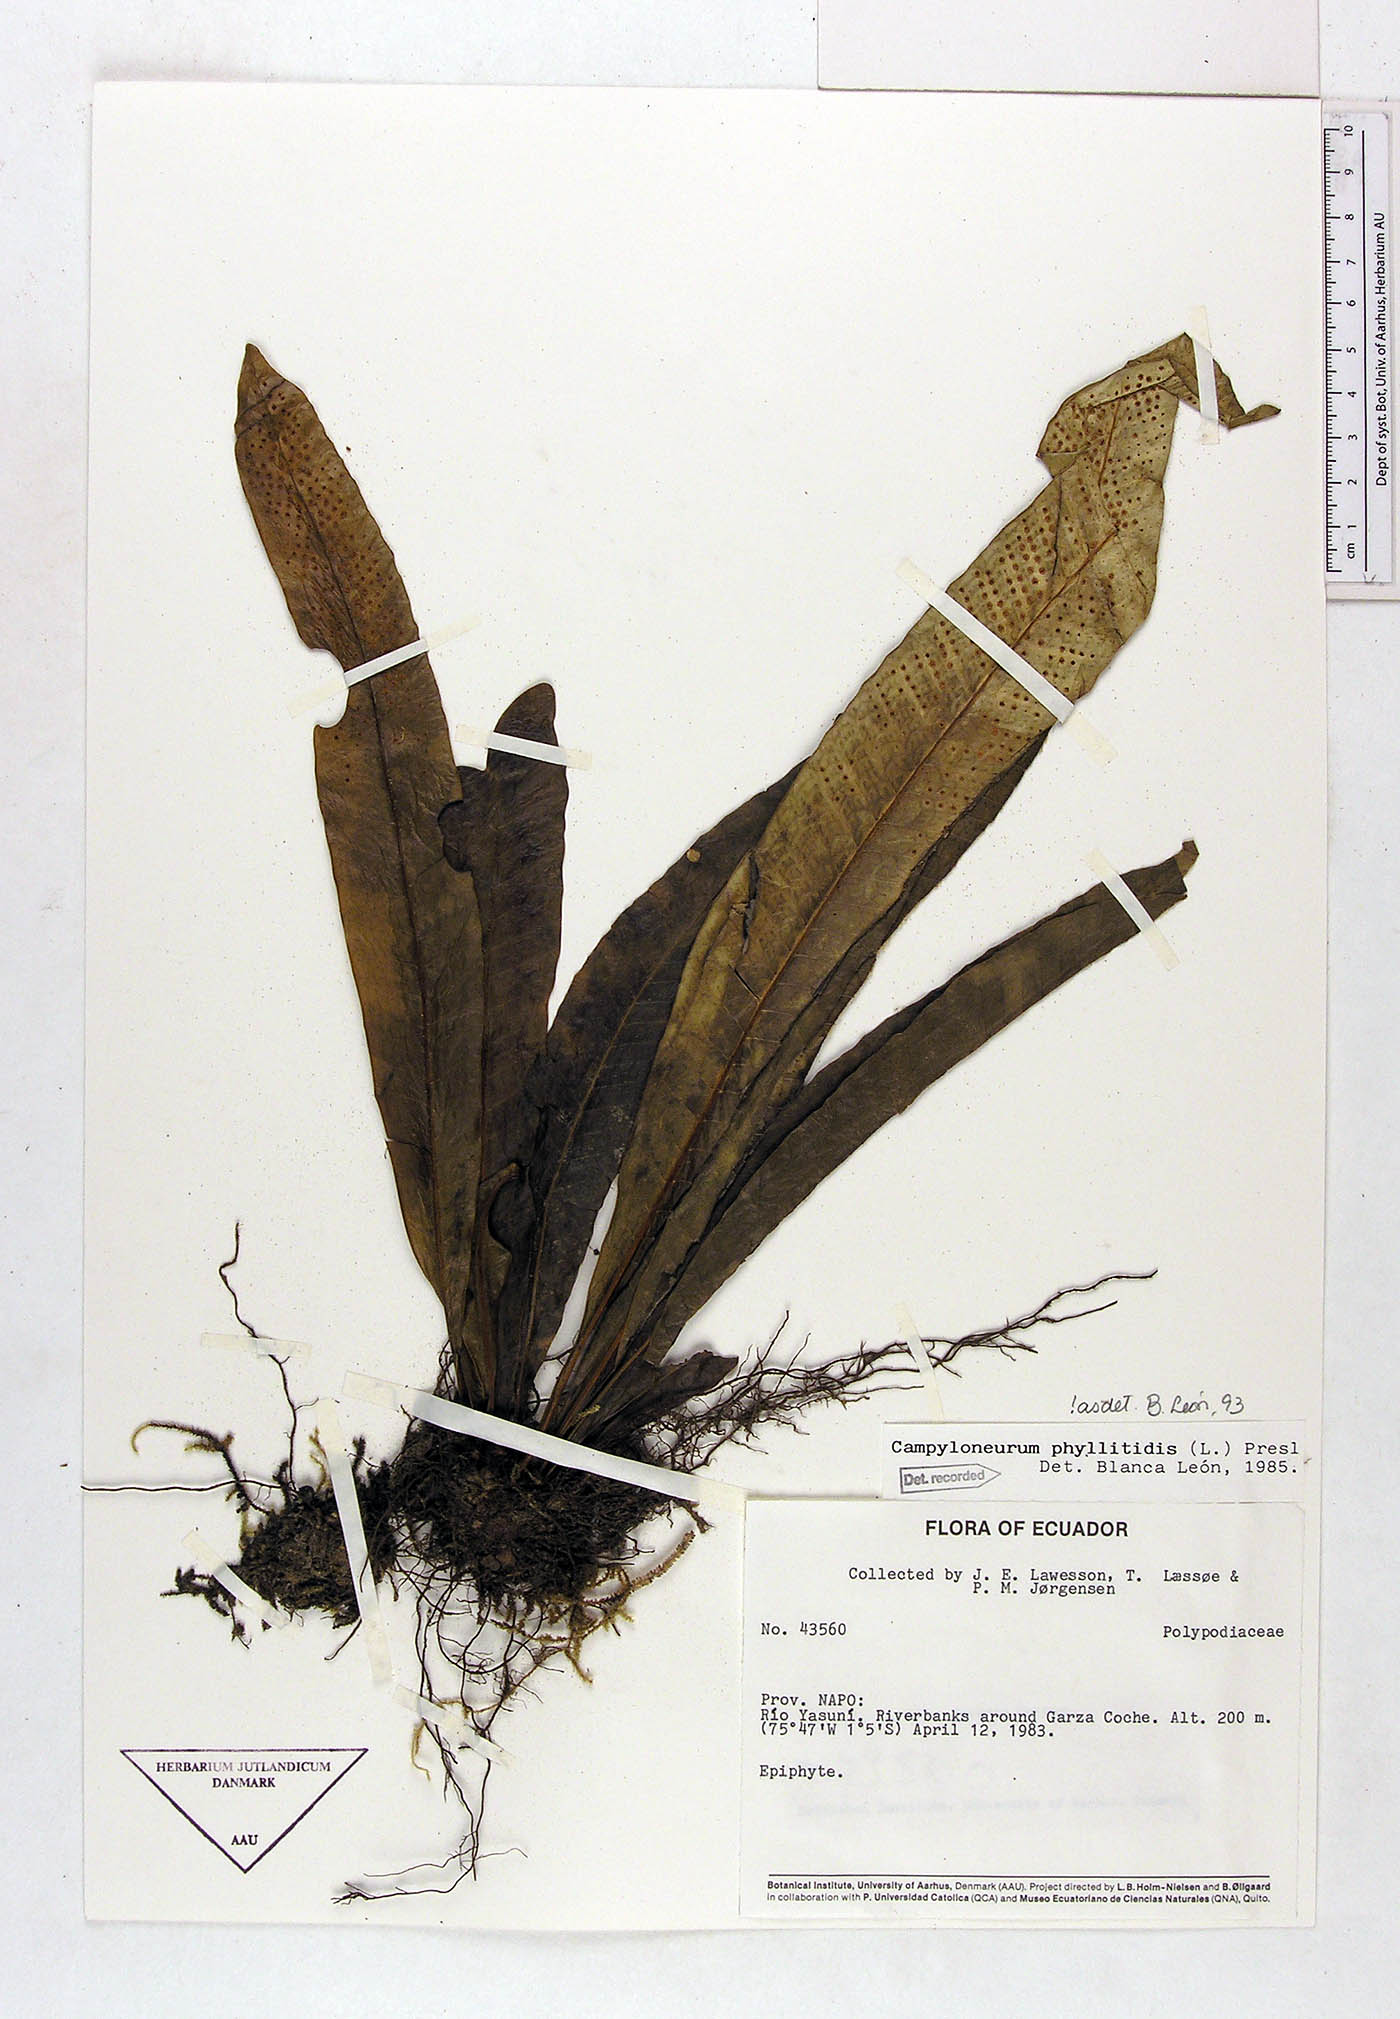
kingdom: Plantae
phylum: Tracheophyta
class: Polypodiopsida
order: Polypodiales
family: Polypodiaceae
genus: Campyloneurum
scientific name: Campyloneurum phyllitidis
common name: Cow-tongue fern
